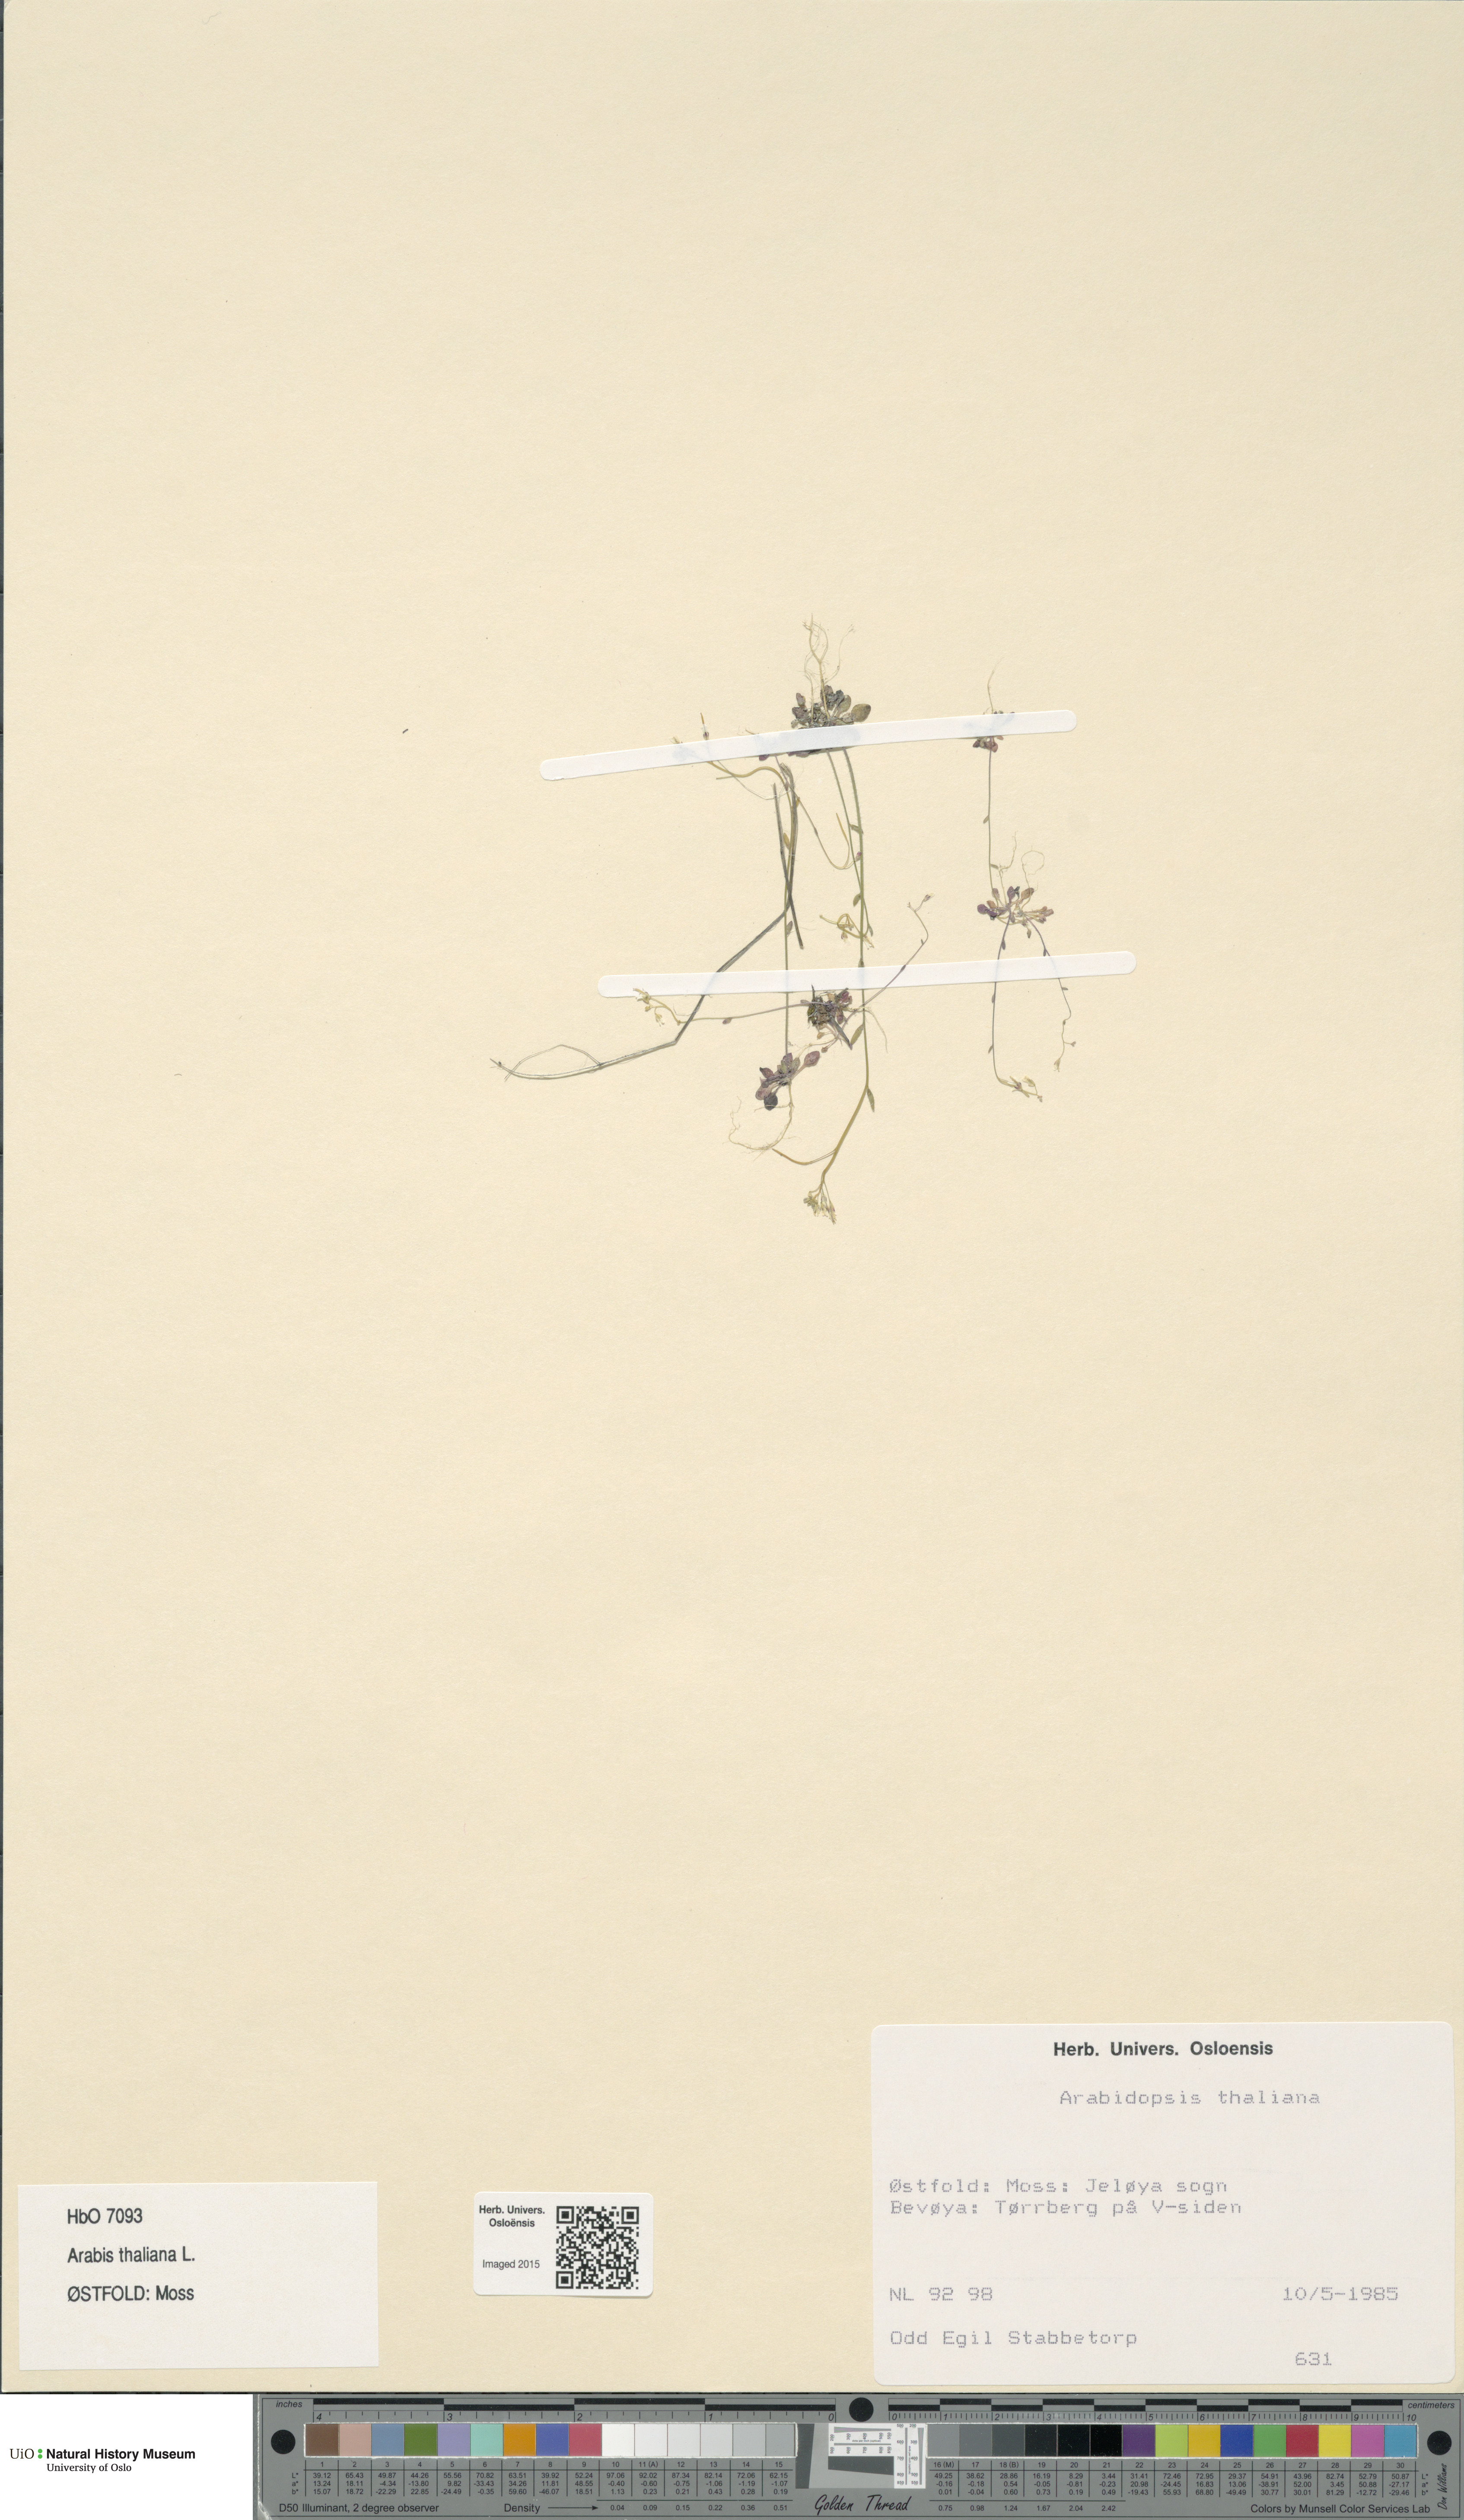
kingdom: Plantae
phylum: Tracheophyta
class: Magnoliopsida
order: Brassicales
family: Brassicaceae
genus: Arabidopsis
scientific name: Arabidopsis thaliana
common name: Thale cress
